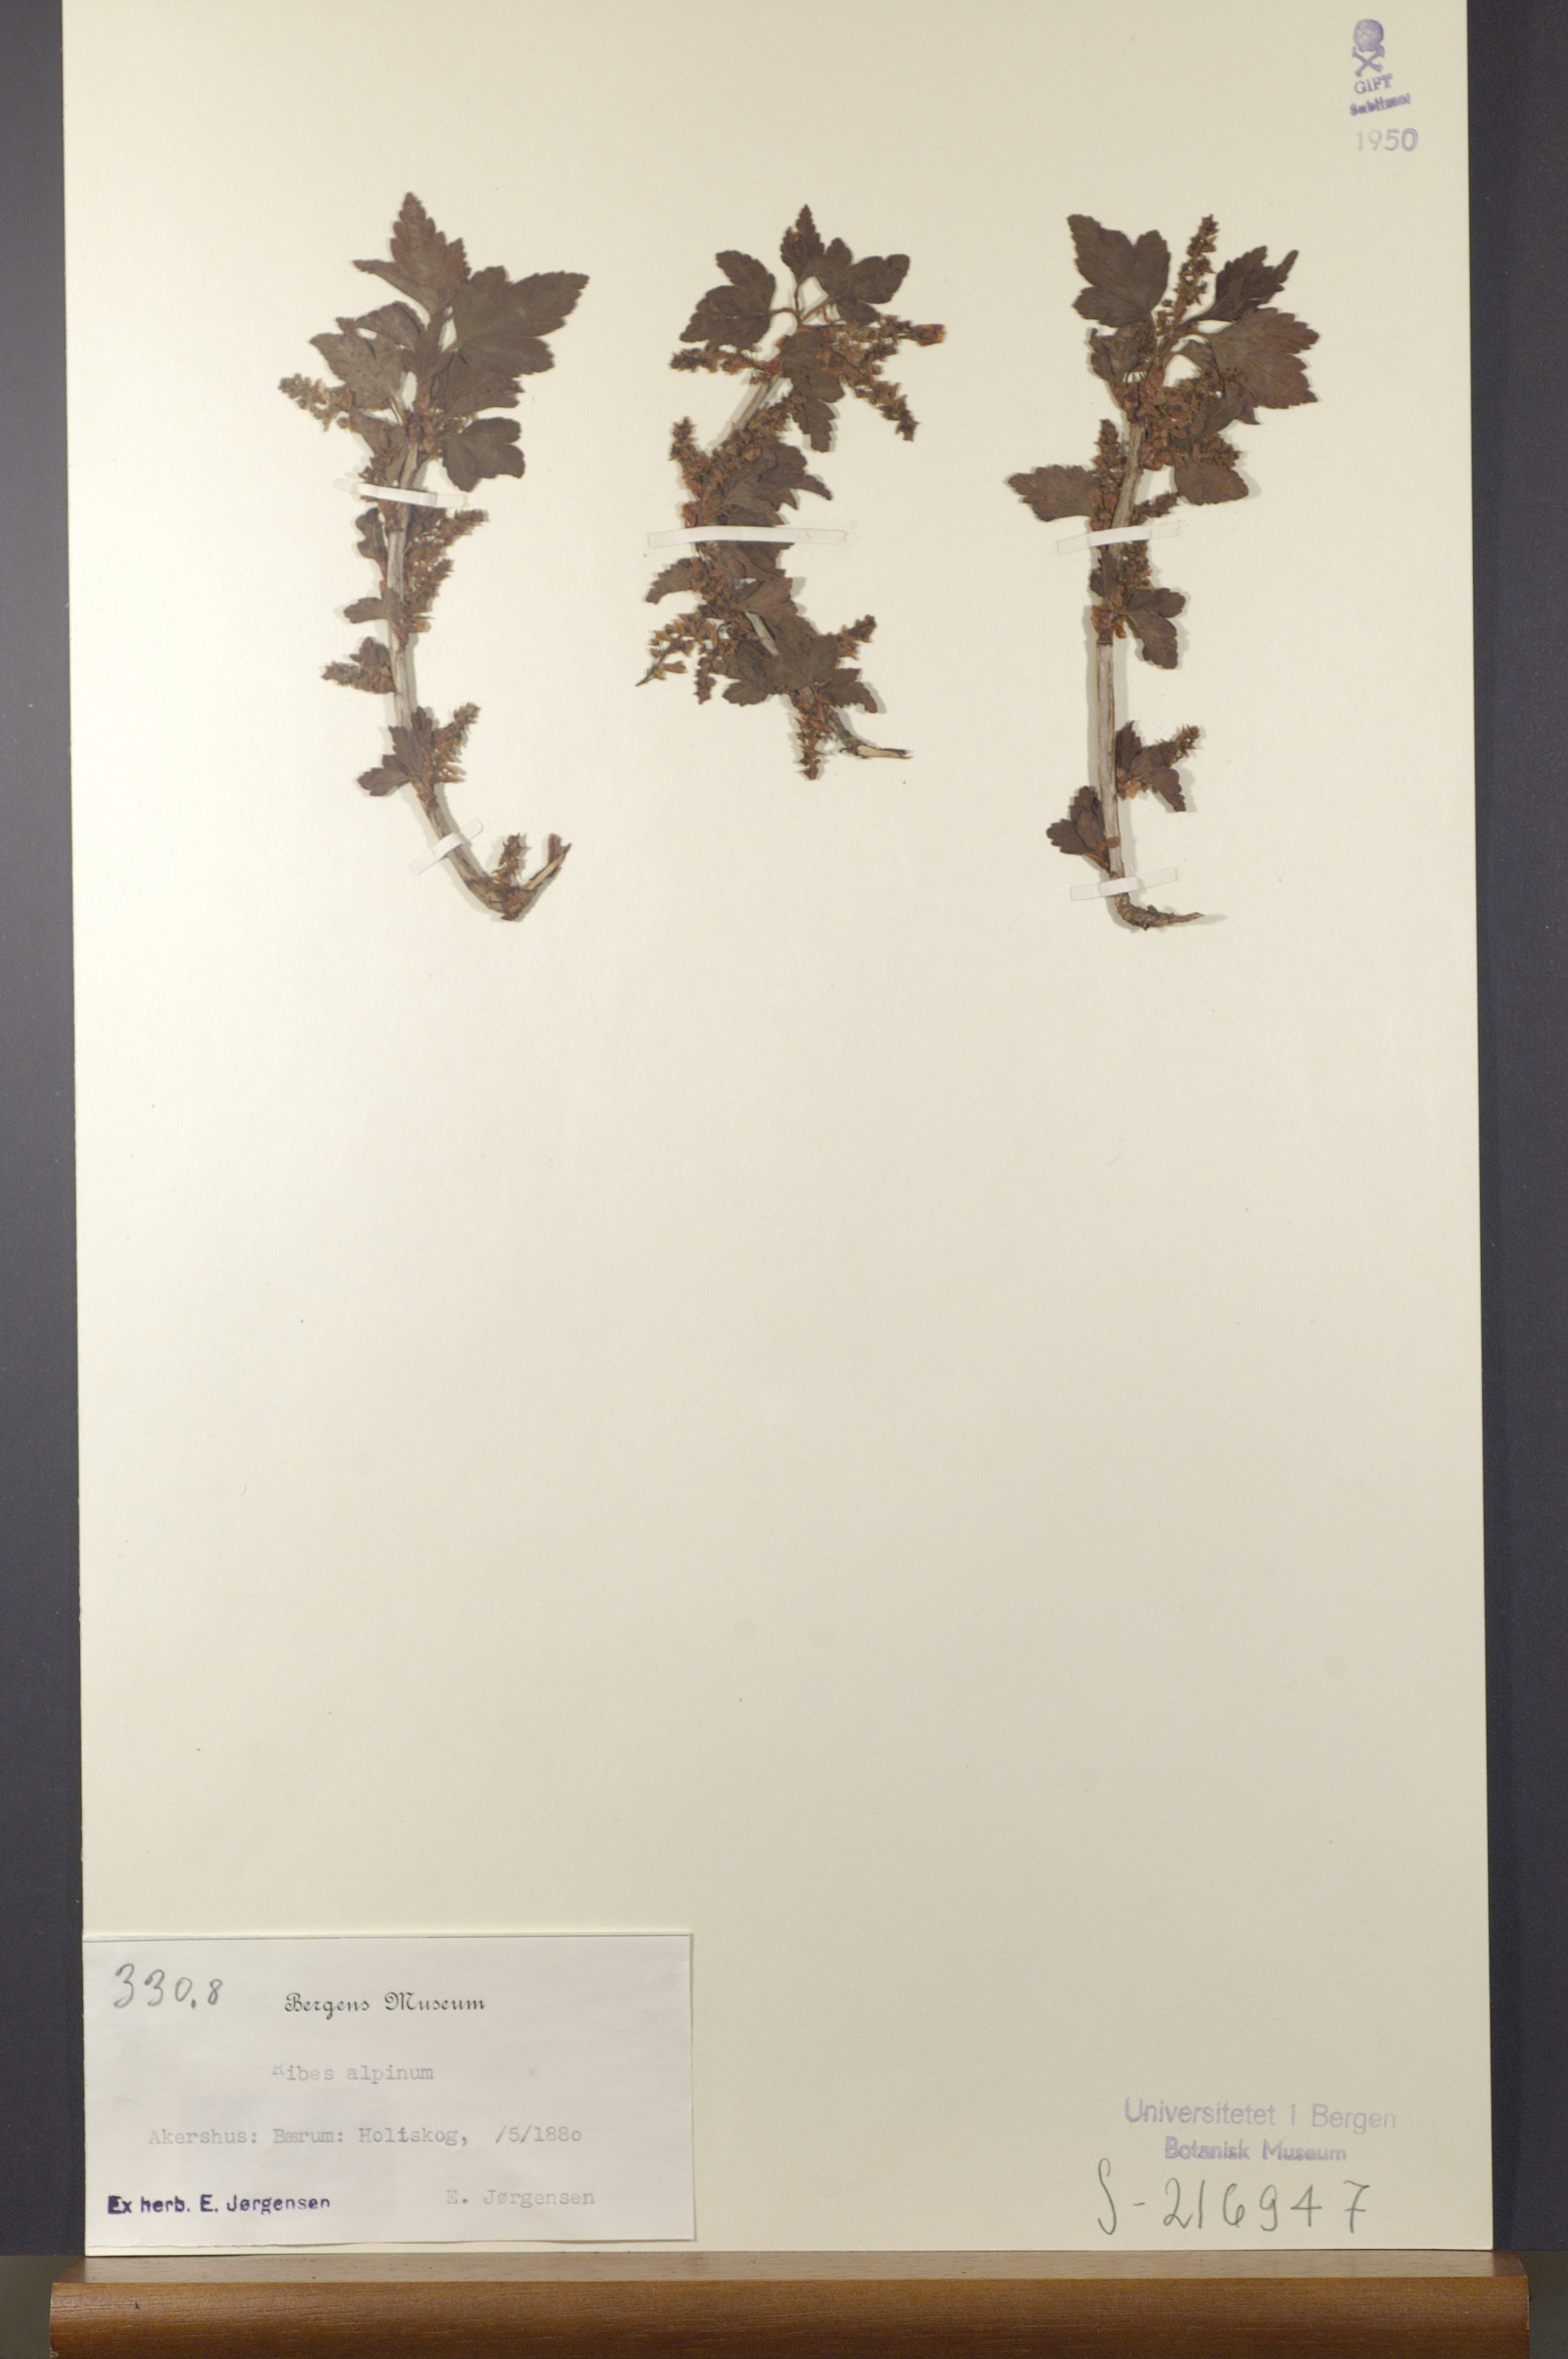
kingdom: Plantae
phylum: Tracheophyta
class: Magnoliopsida
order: Saxifragales
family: Grossulariaceae
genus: Ribes
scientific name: Ribes alpinum
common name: Alpine currant
